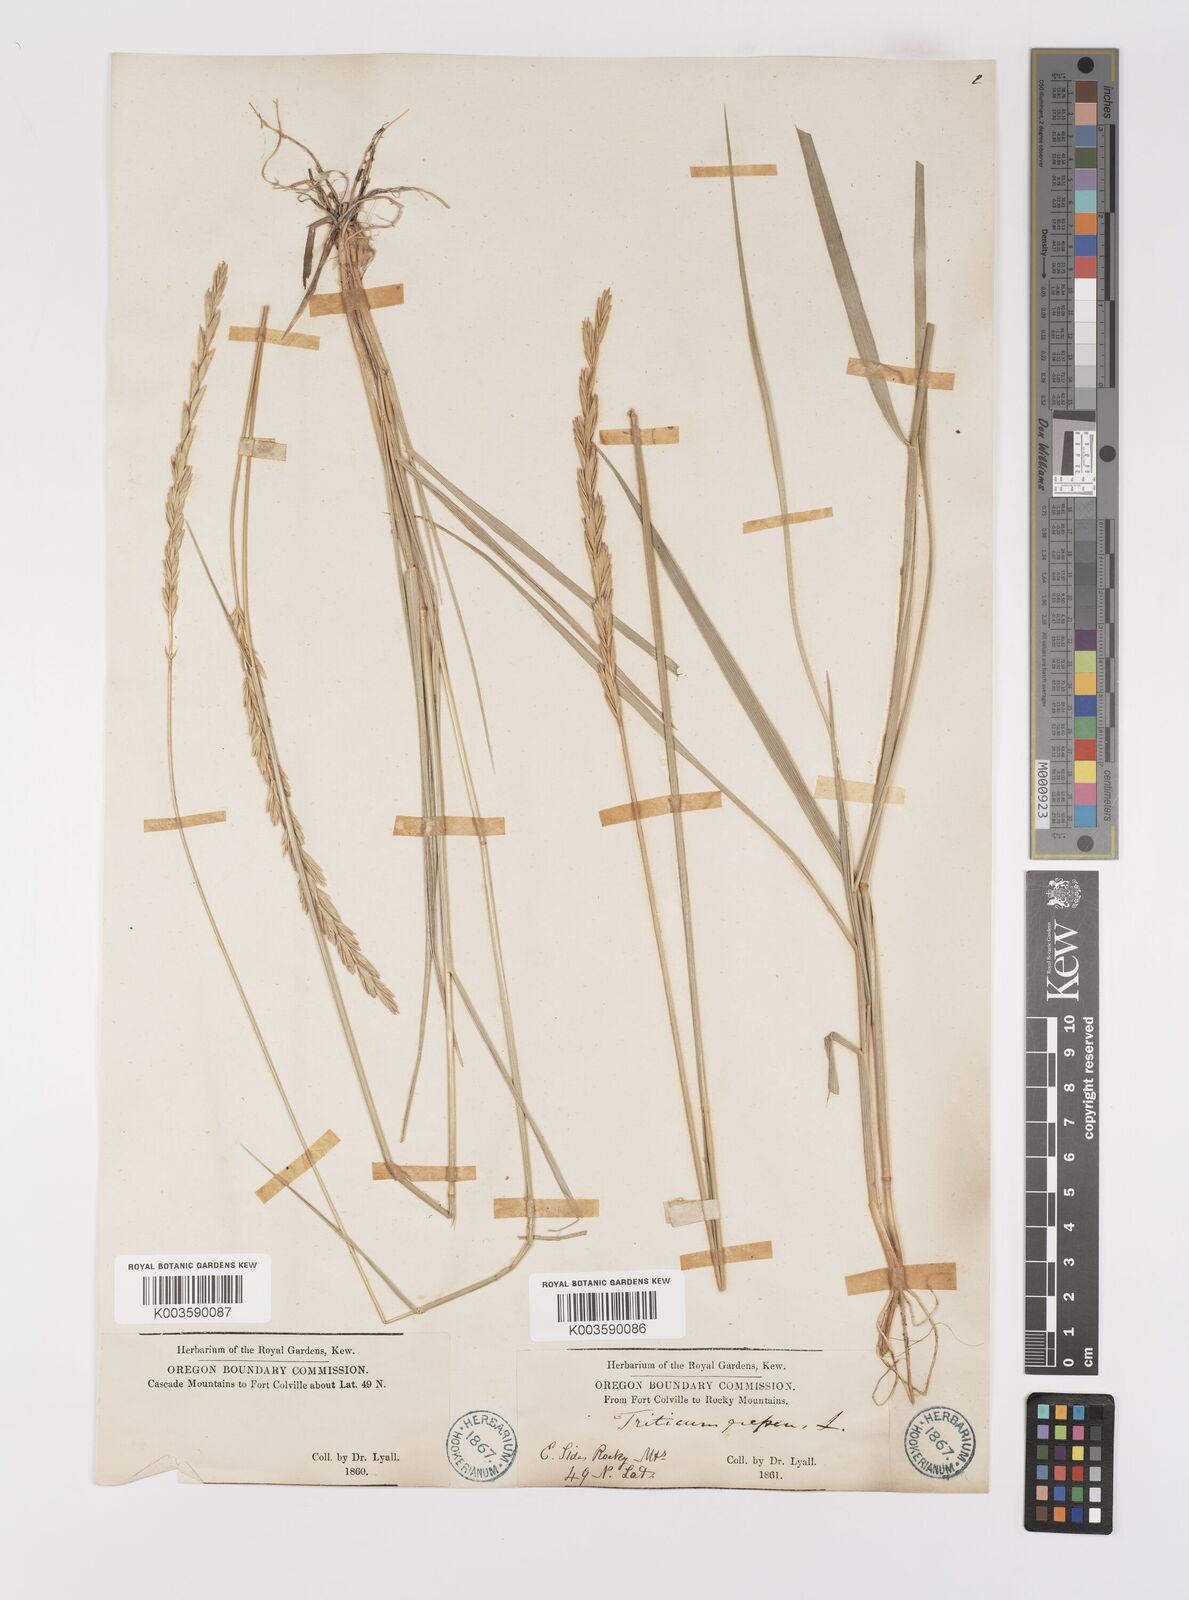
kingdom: Plantae
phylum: Tracheophyta
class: Liliopsida
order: Poales
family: Poaceae
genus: Elymus
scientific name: Elymus repens
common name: Quackgrass
